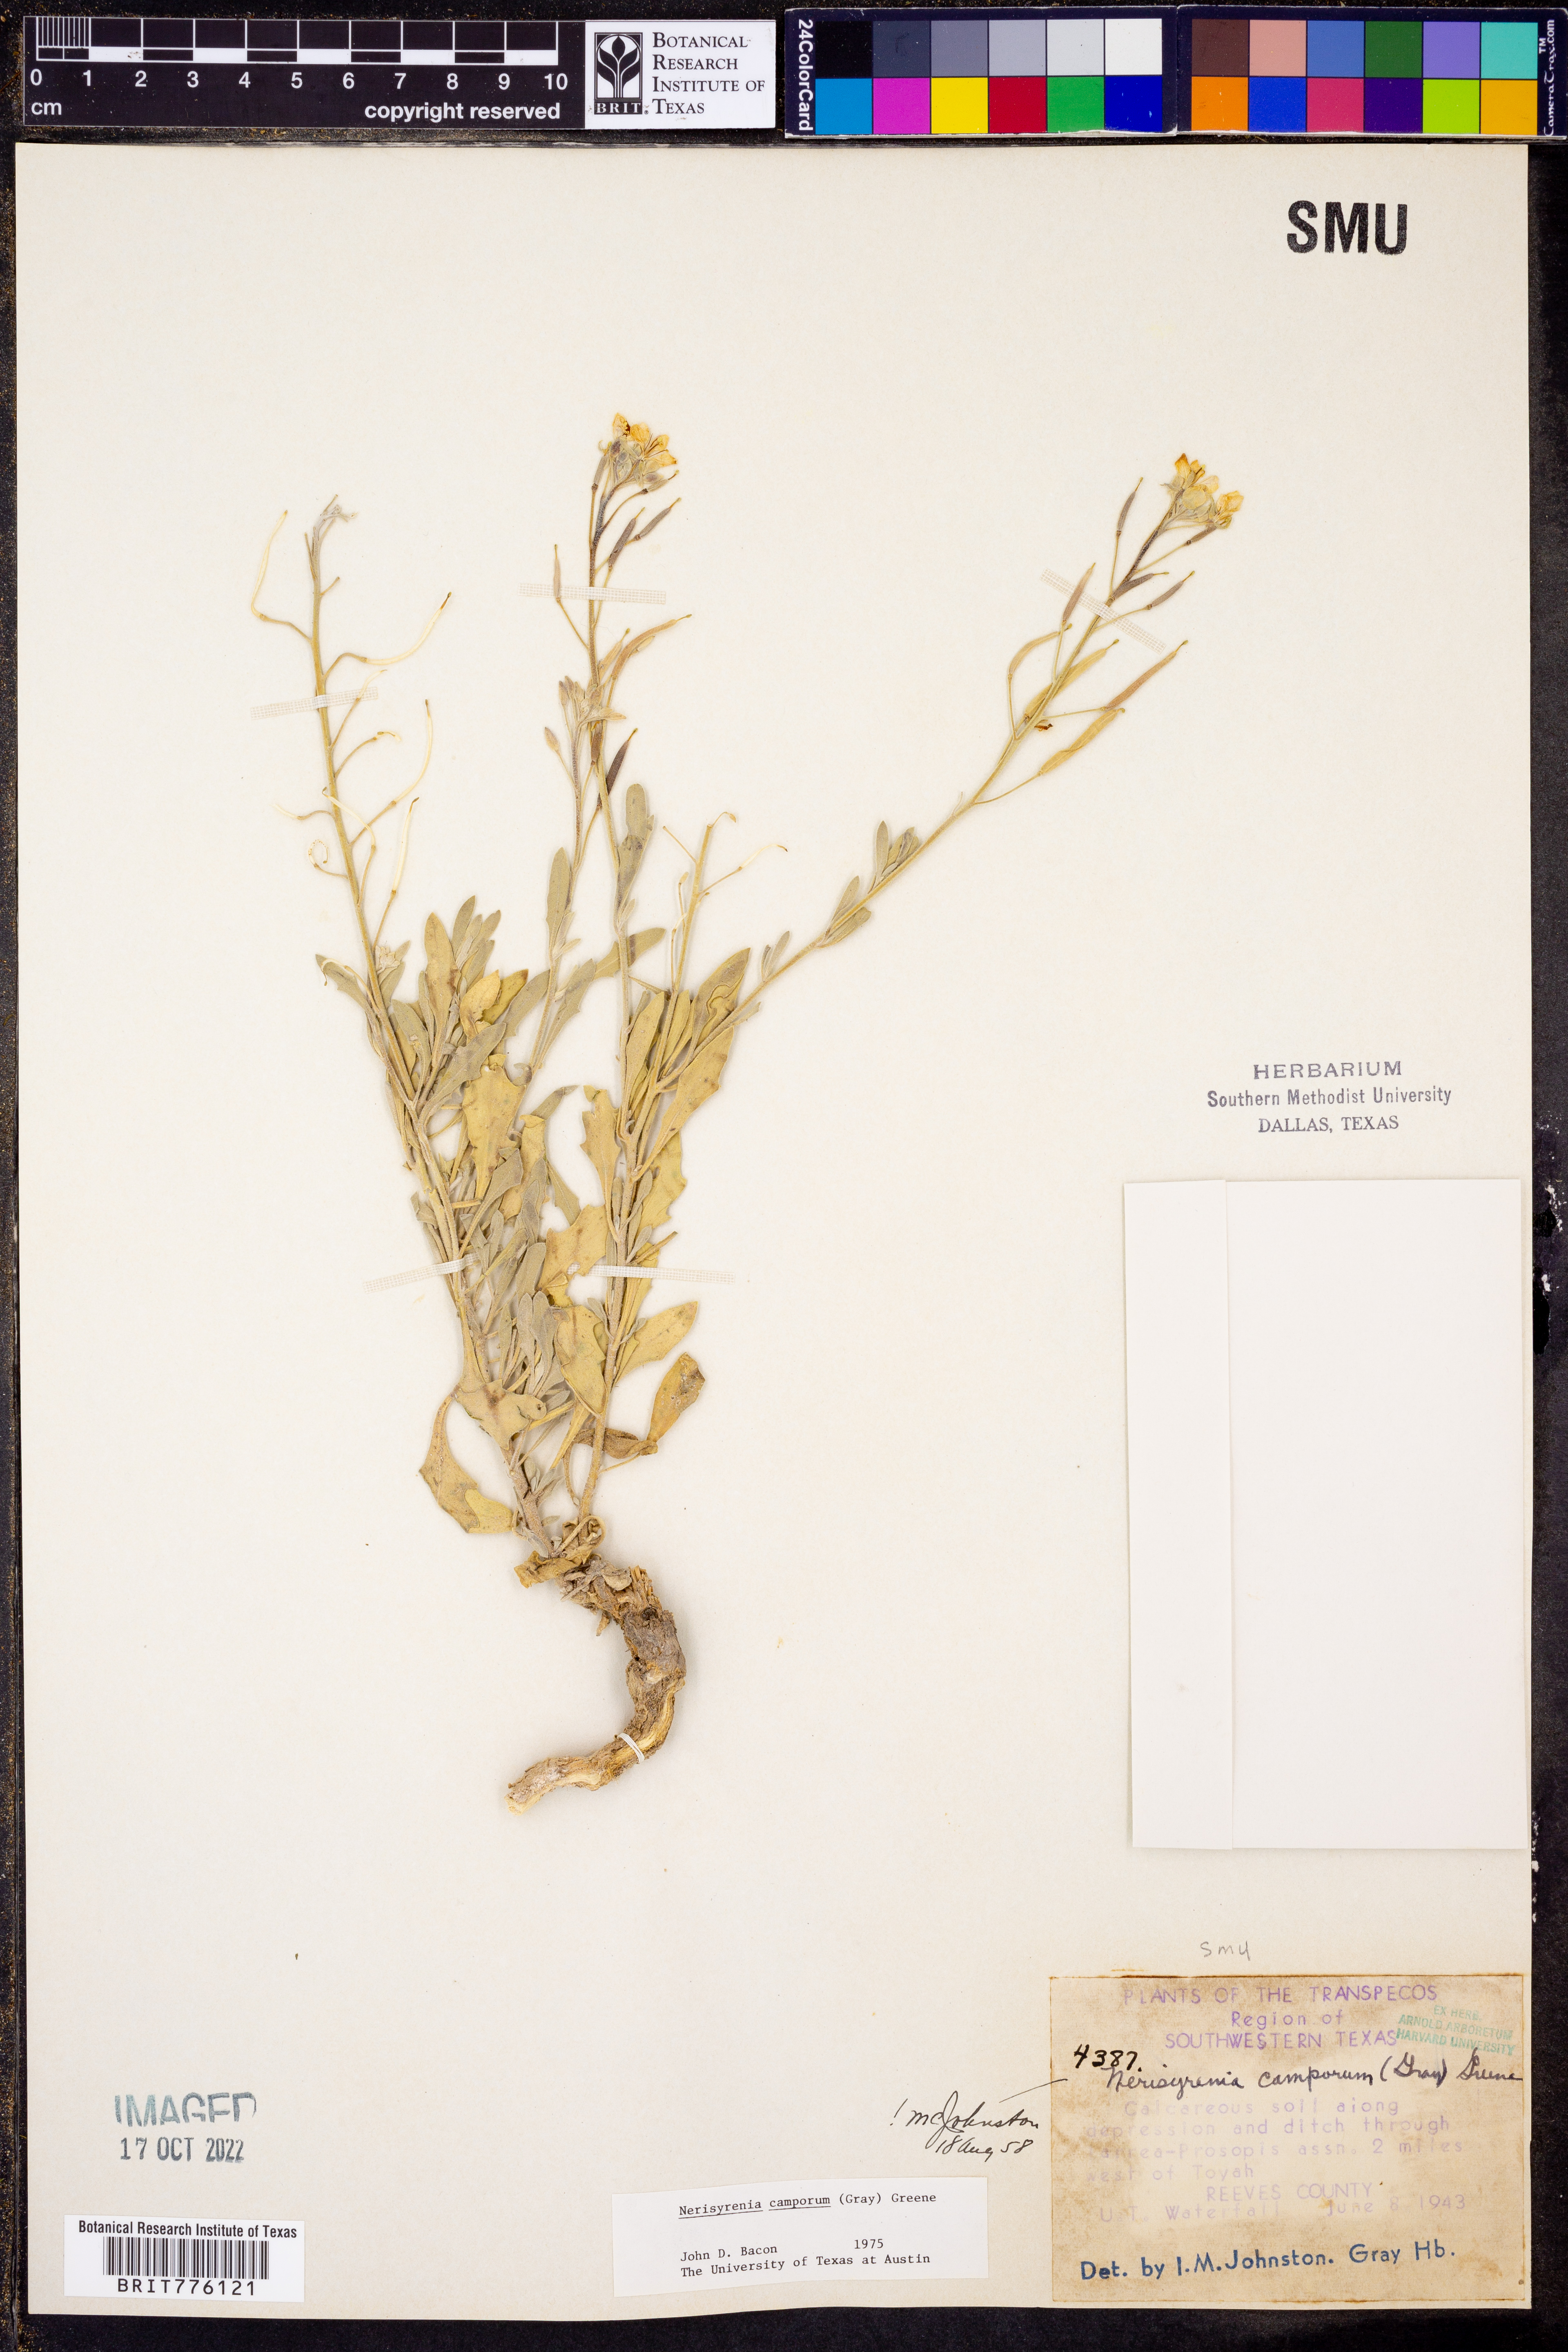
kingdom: Plantae
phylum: Tracheophyta
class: Magnoliopsida
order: Brassicales
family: Brassicaceae
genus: Nerisyrenia
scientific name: Nerisyrenia camporum
